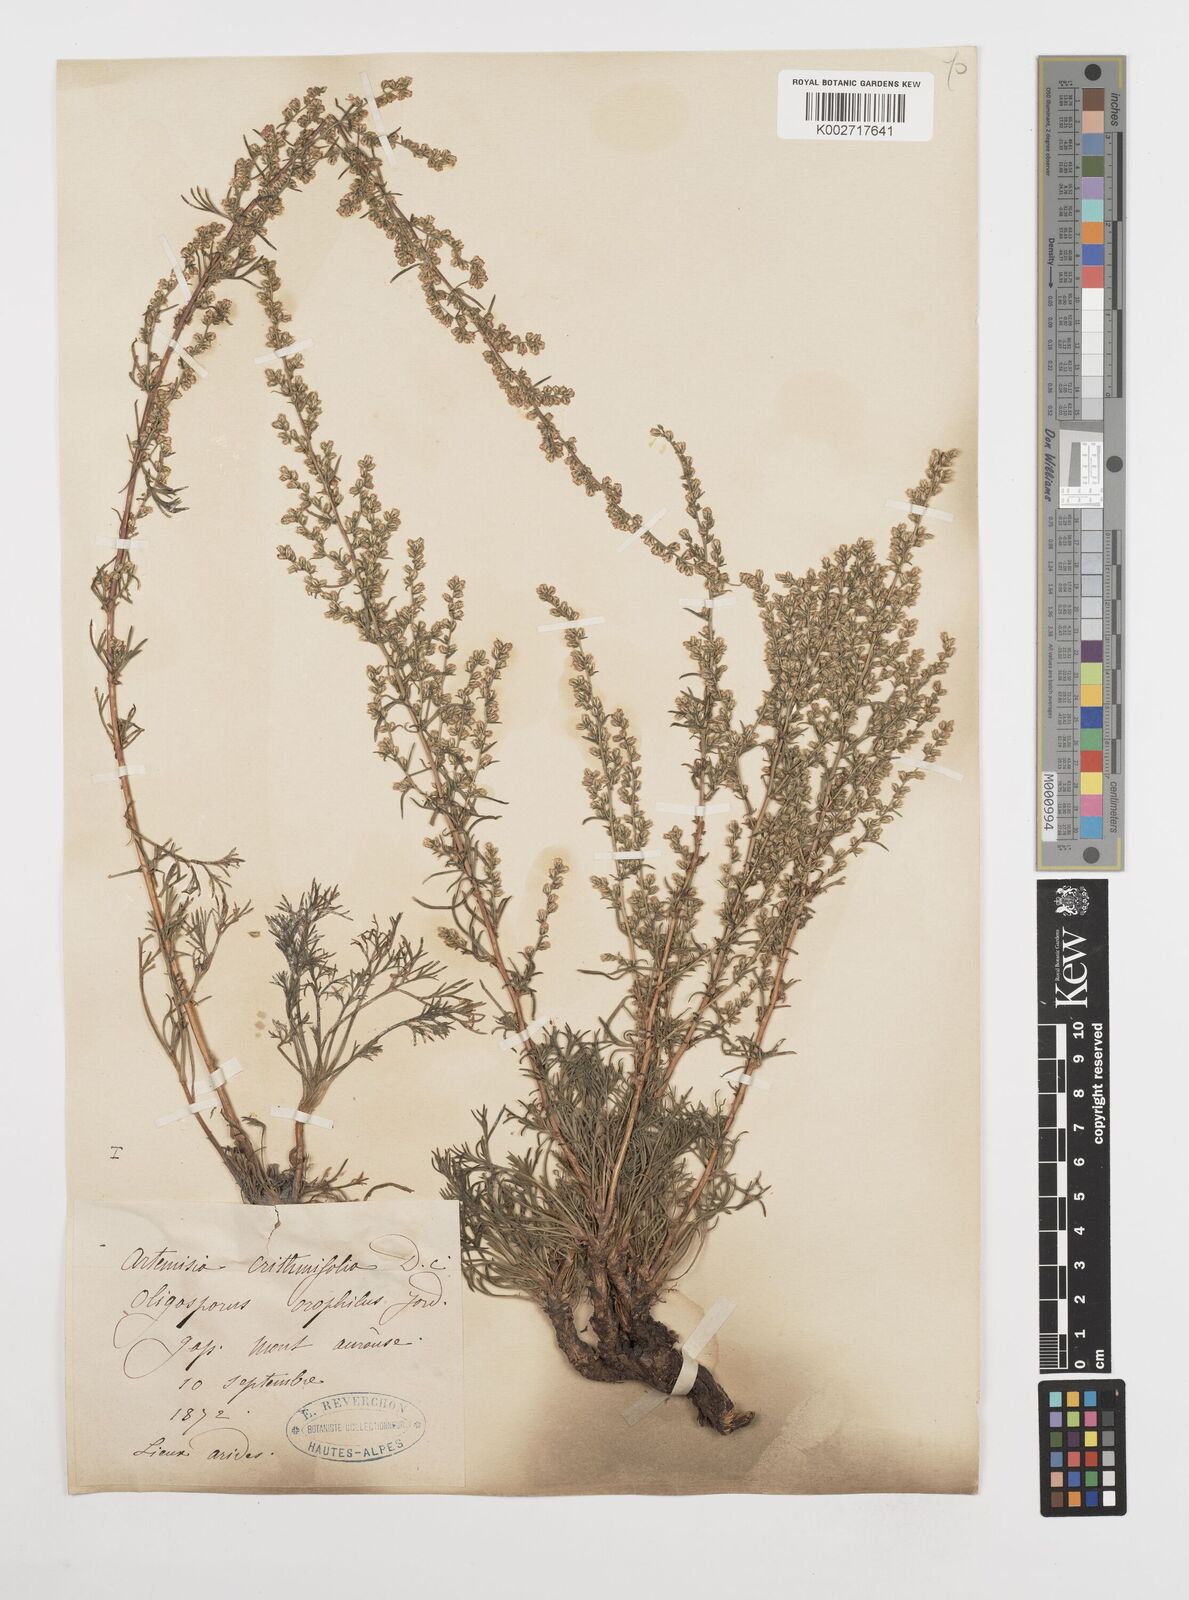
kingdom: Plantae
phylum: Tracheophyta
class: Magnoliopsida
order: Asterales
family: Asteraceae
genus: Artemisia
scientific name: Artemisia campestris
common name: Field wormwood
